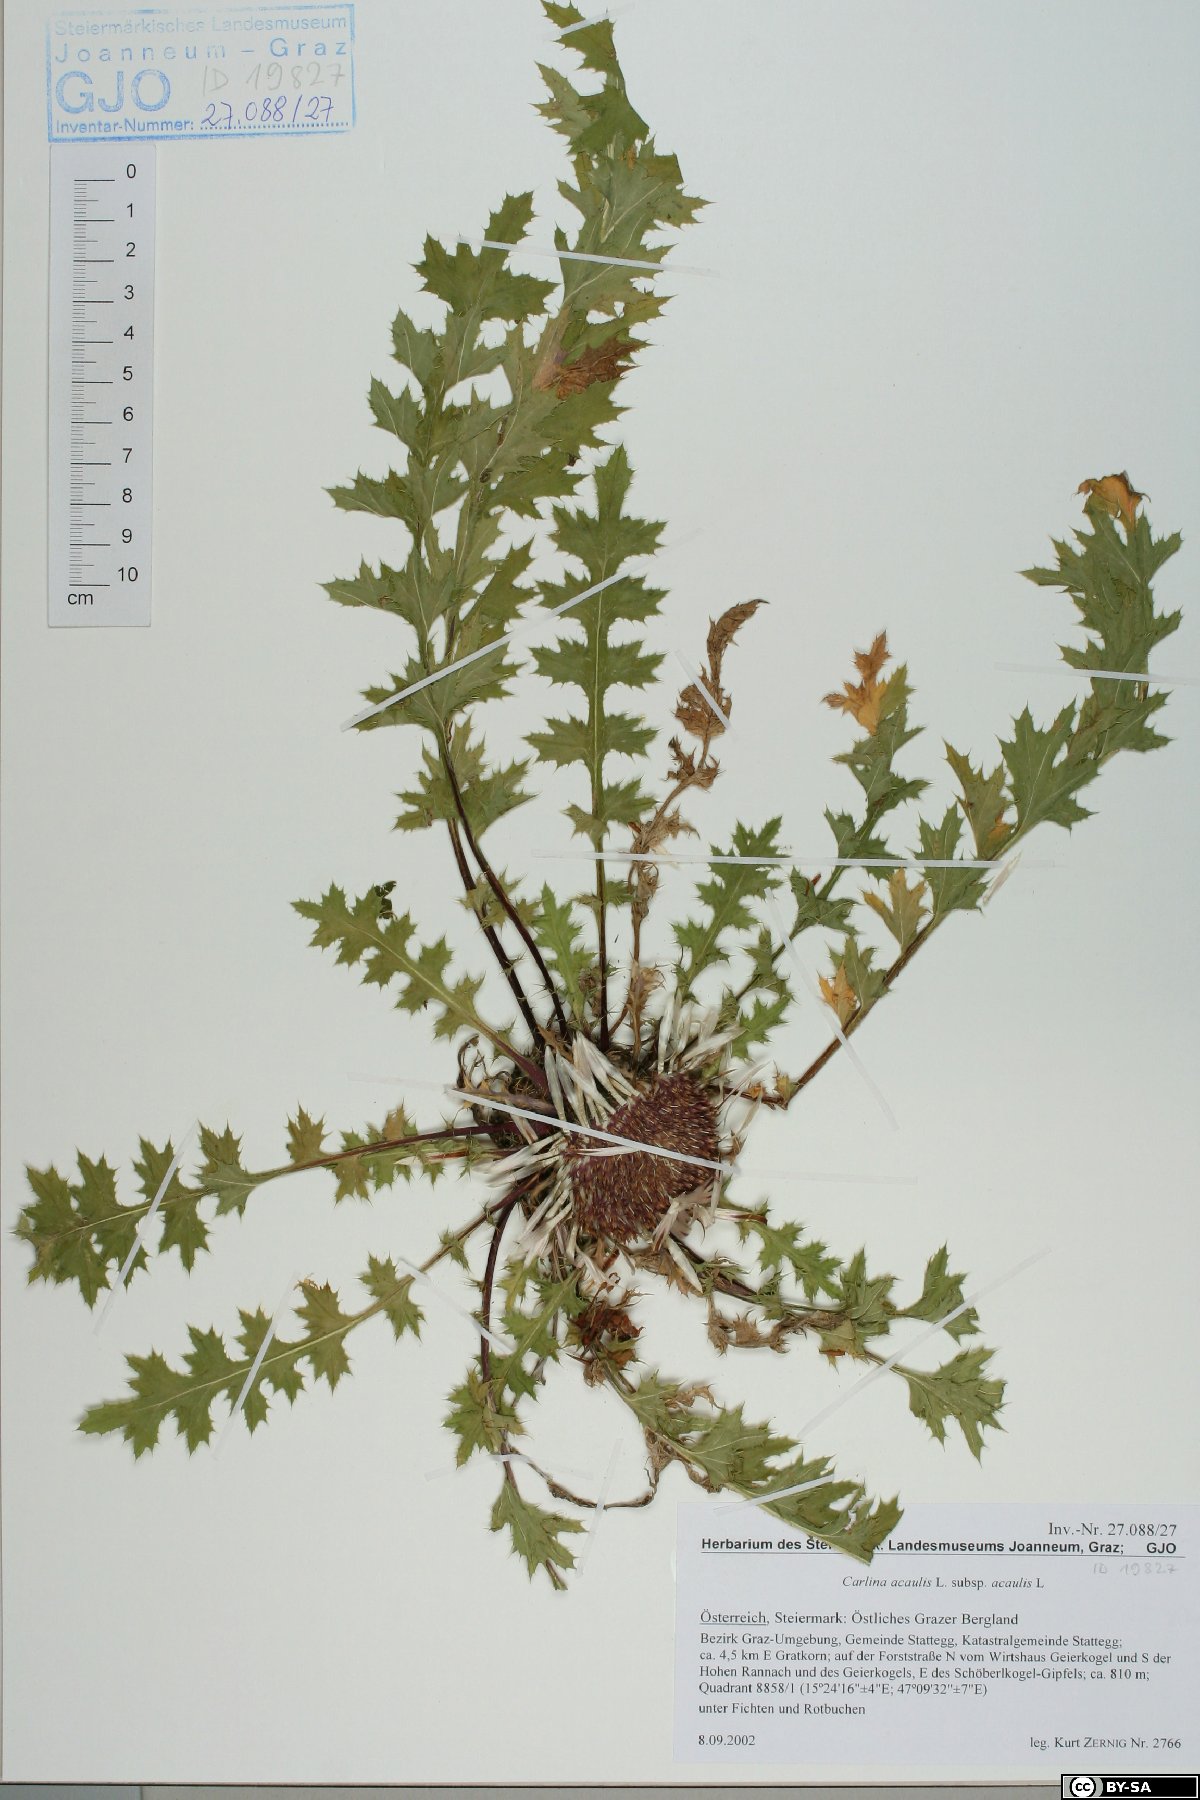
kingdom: Plantae
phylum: Tracheophyta
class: Magnoliopsida
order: Asterales
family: Asteraceae
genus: Carlina
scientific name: Carlina acaulis
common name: Stemless carline thistle
